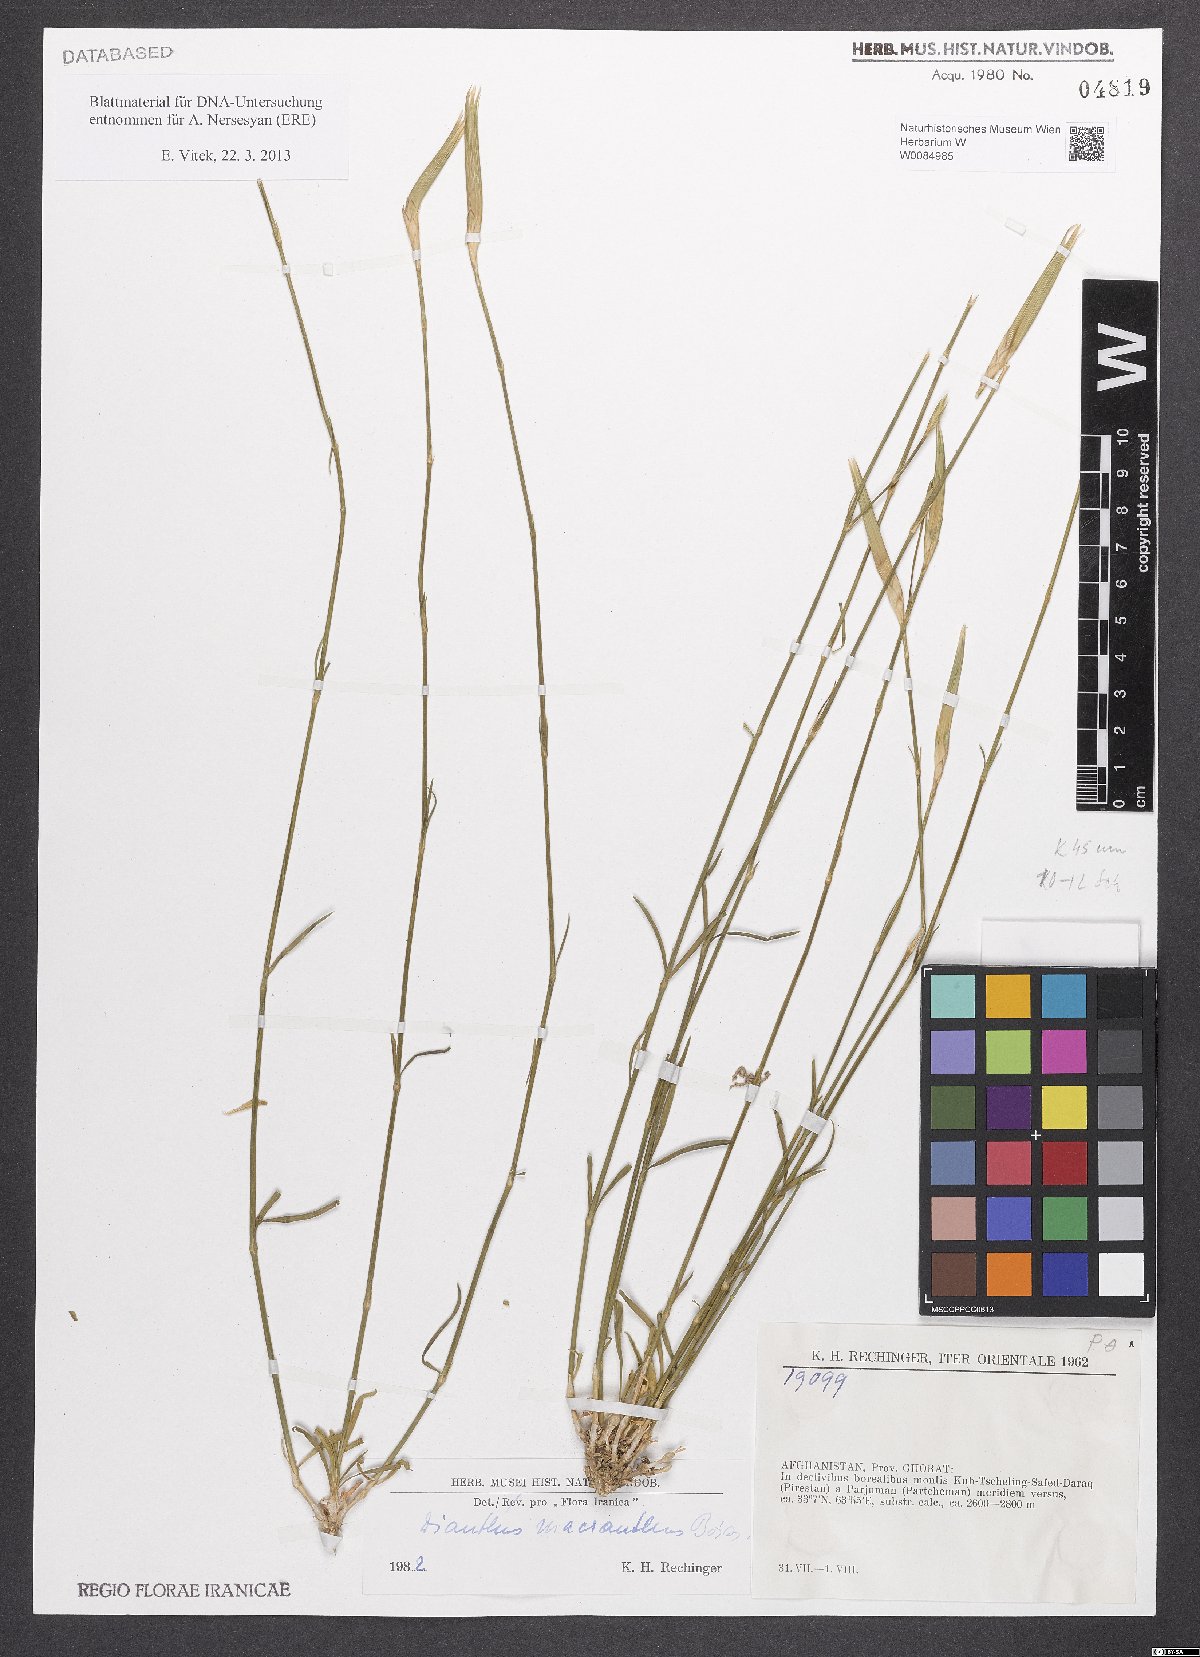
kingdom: Plantae
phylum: Tracheophyta
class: Magnoliopsida
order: Caryophyllales
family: Caryophyllaceae
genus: Dianthus
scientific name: Dianthus macranthus
